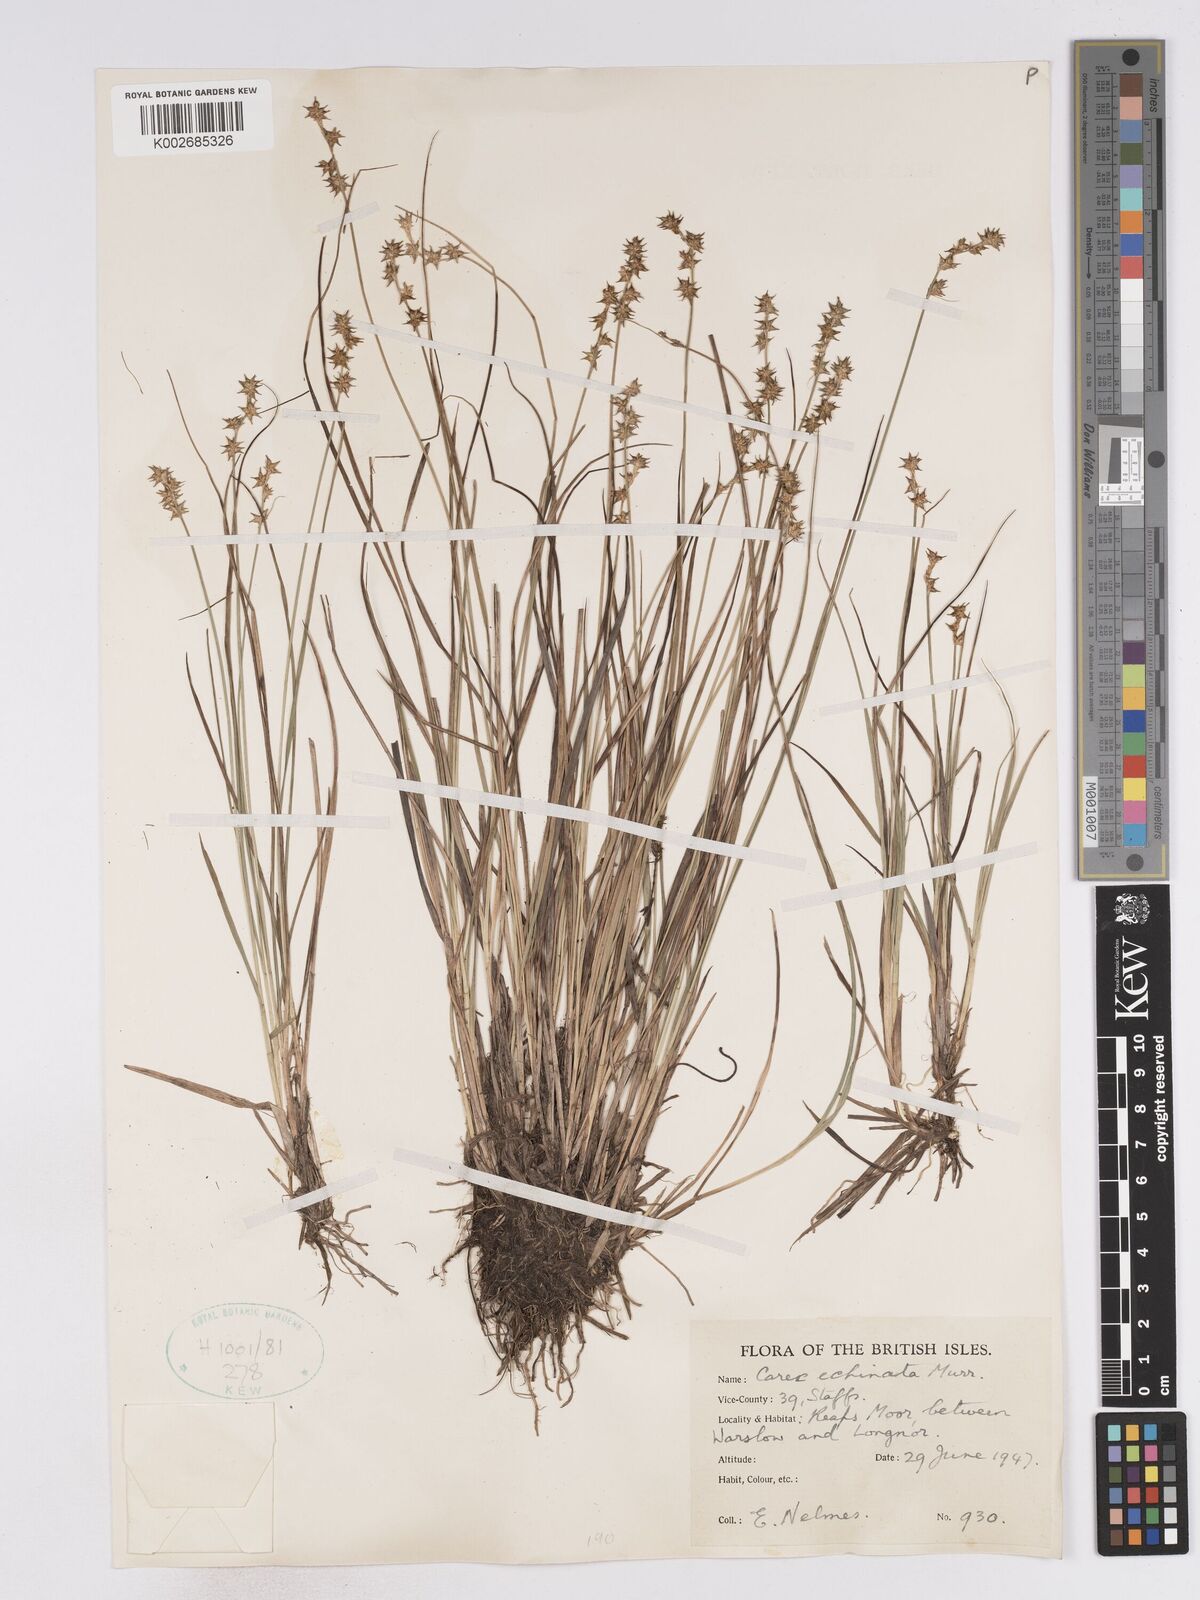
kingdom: Plantae
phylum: Tracheophyta
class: Liliopsida
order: Poales
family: Cyperaceae
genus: Carex
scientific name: Carex echinata
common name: Star sedge
